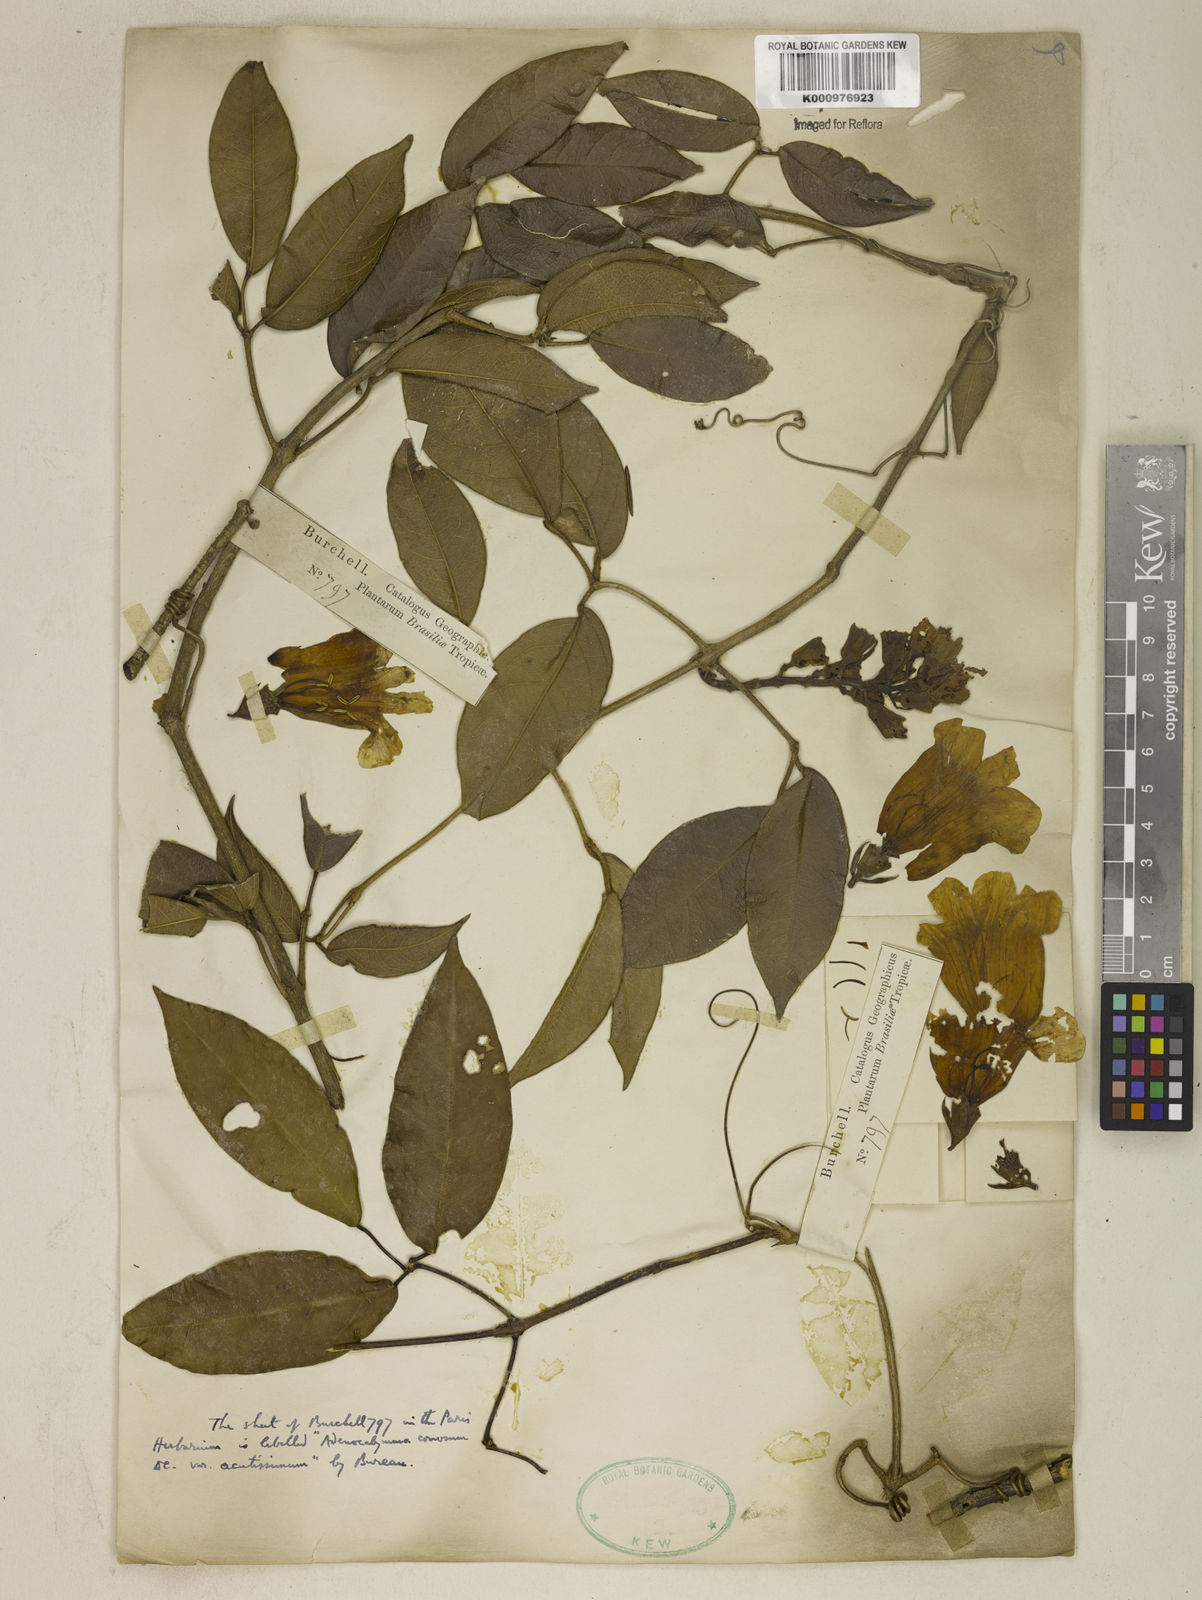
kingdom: Plantae
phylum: Tracheophyta
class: Magnoliopsida
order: Lamiales
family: Bignoniaceae
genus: Adenocalymma
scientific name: Adenocalymma acutissimum
